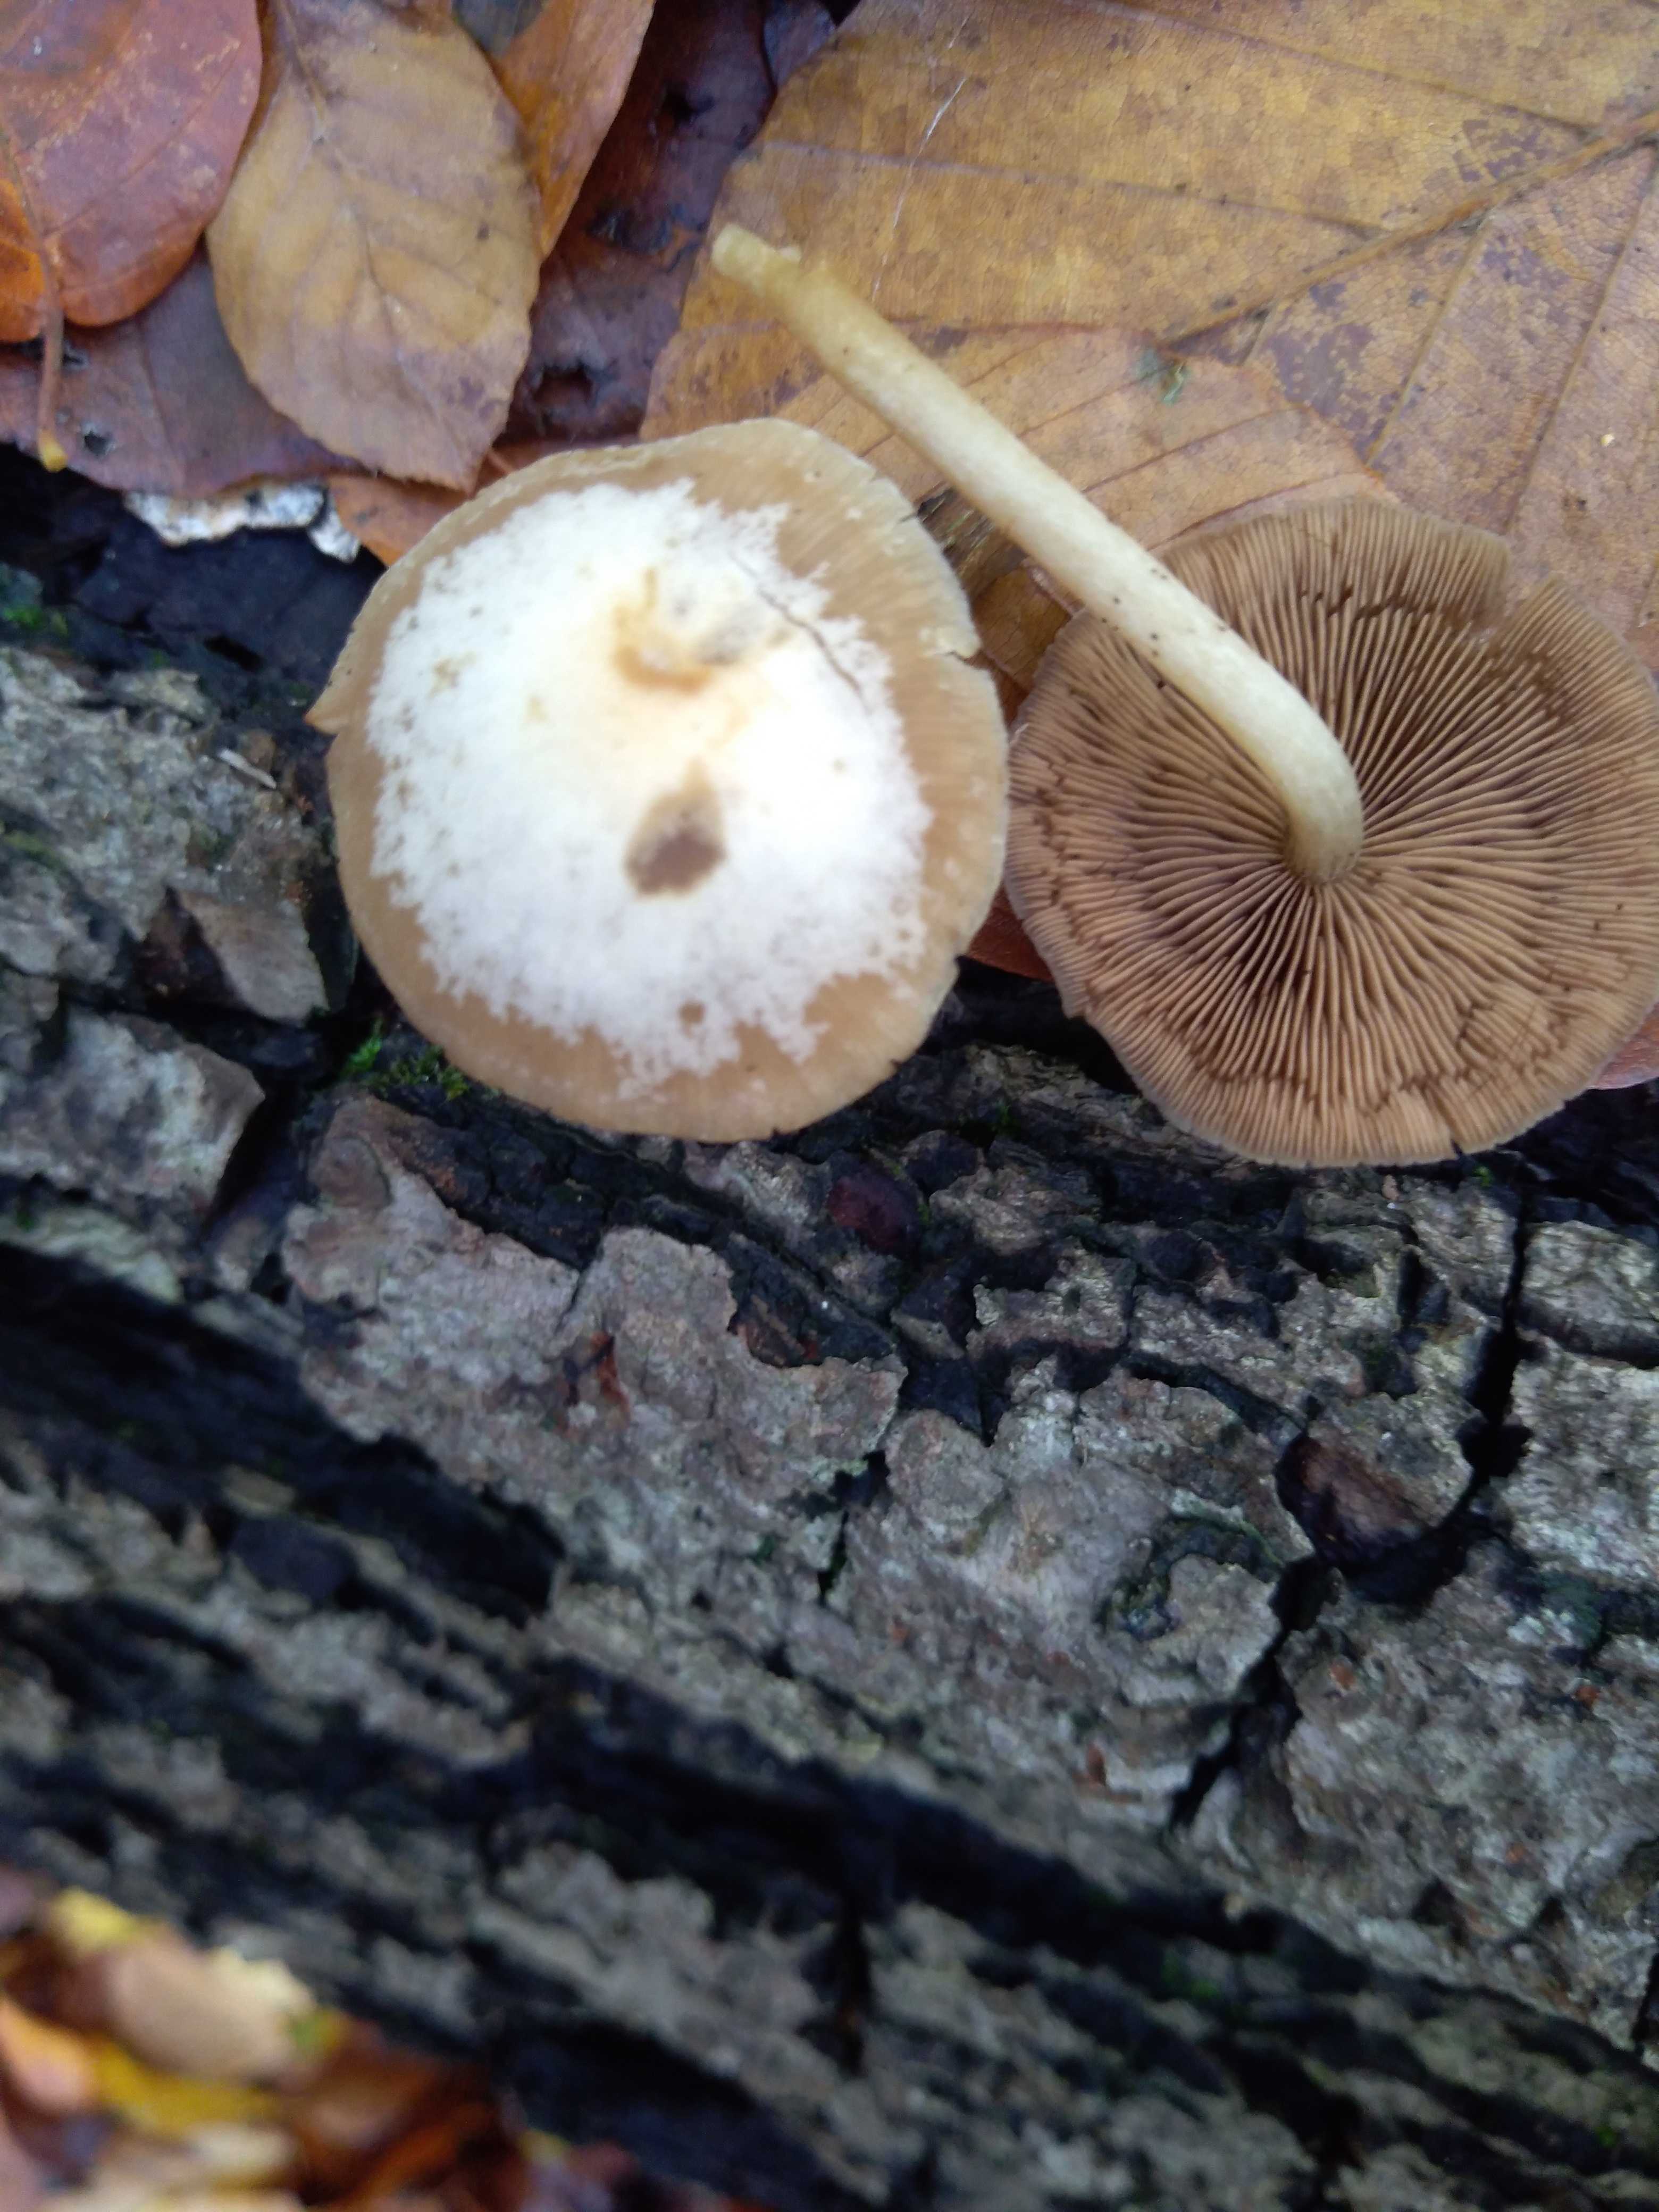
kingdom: Fungi
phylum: Basidiomycota
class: Agaricomycetes
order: Agaricales
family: Psathyrellaceae
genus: Psathyrella
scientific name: Psathyrella piluliformis
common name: lysstokket mørkhat
